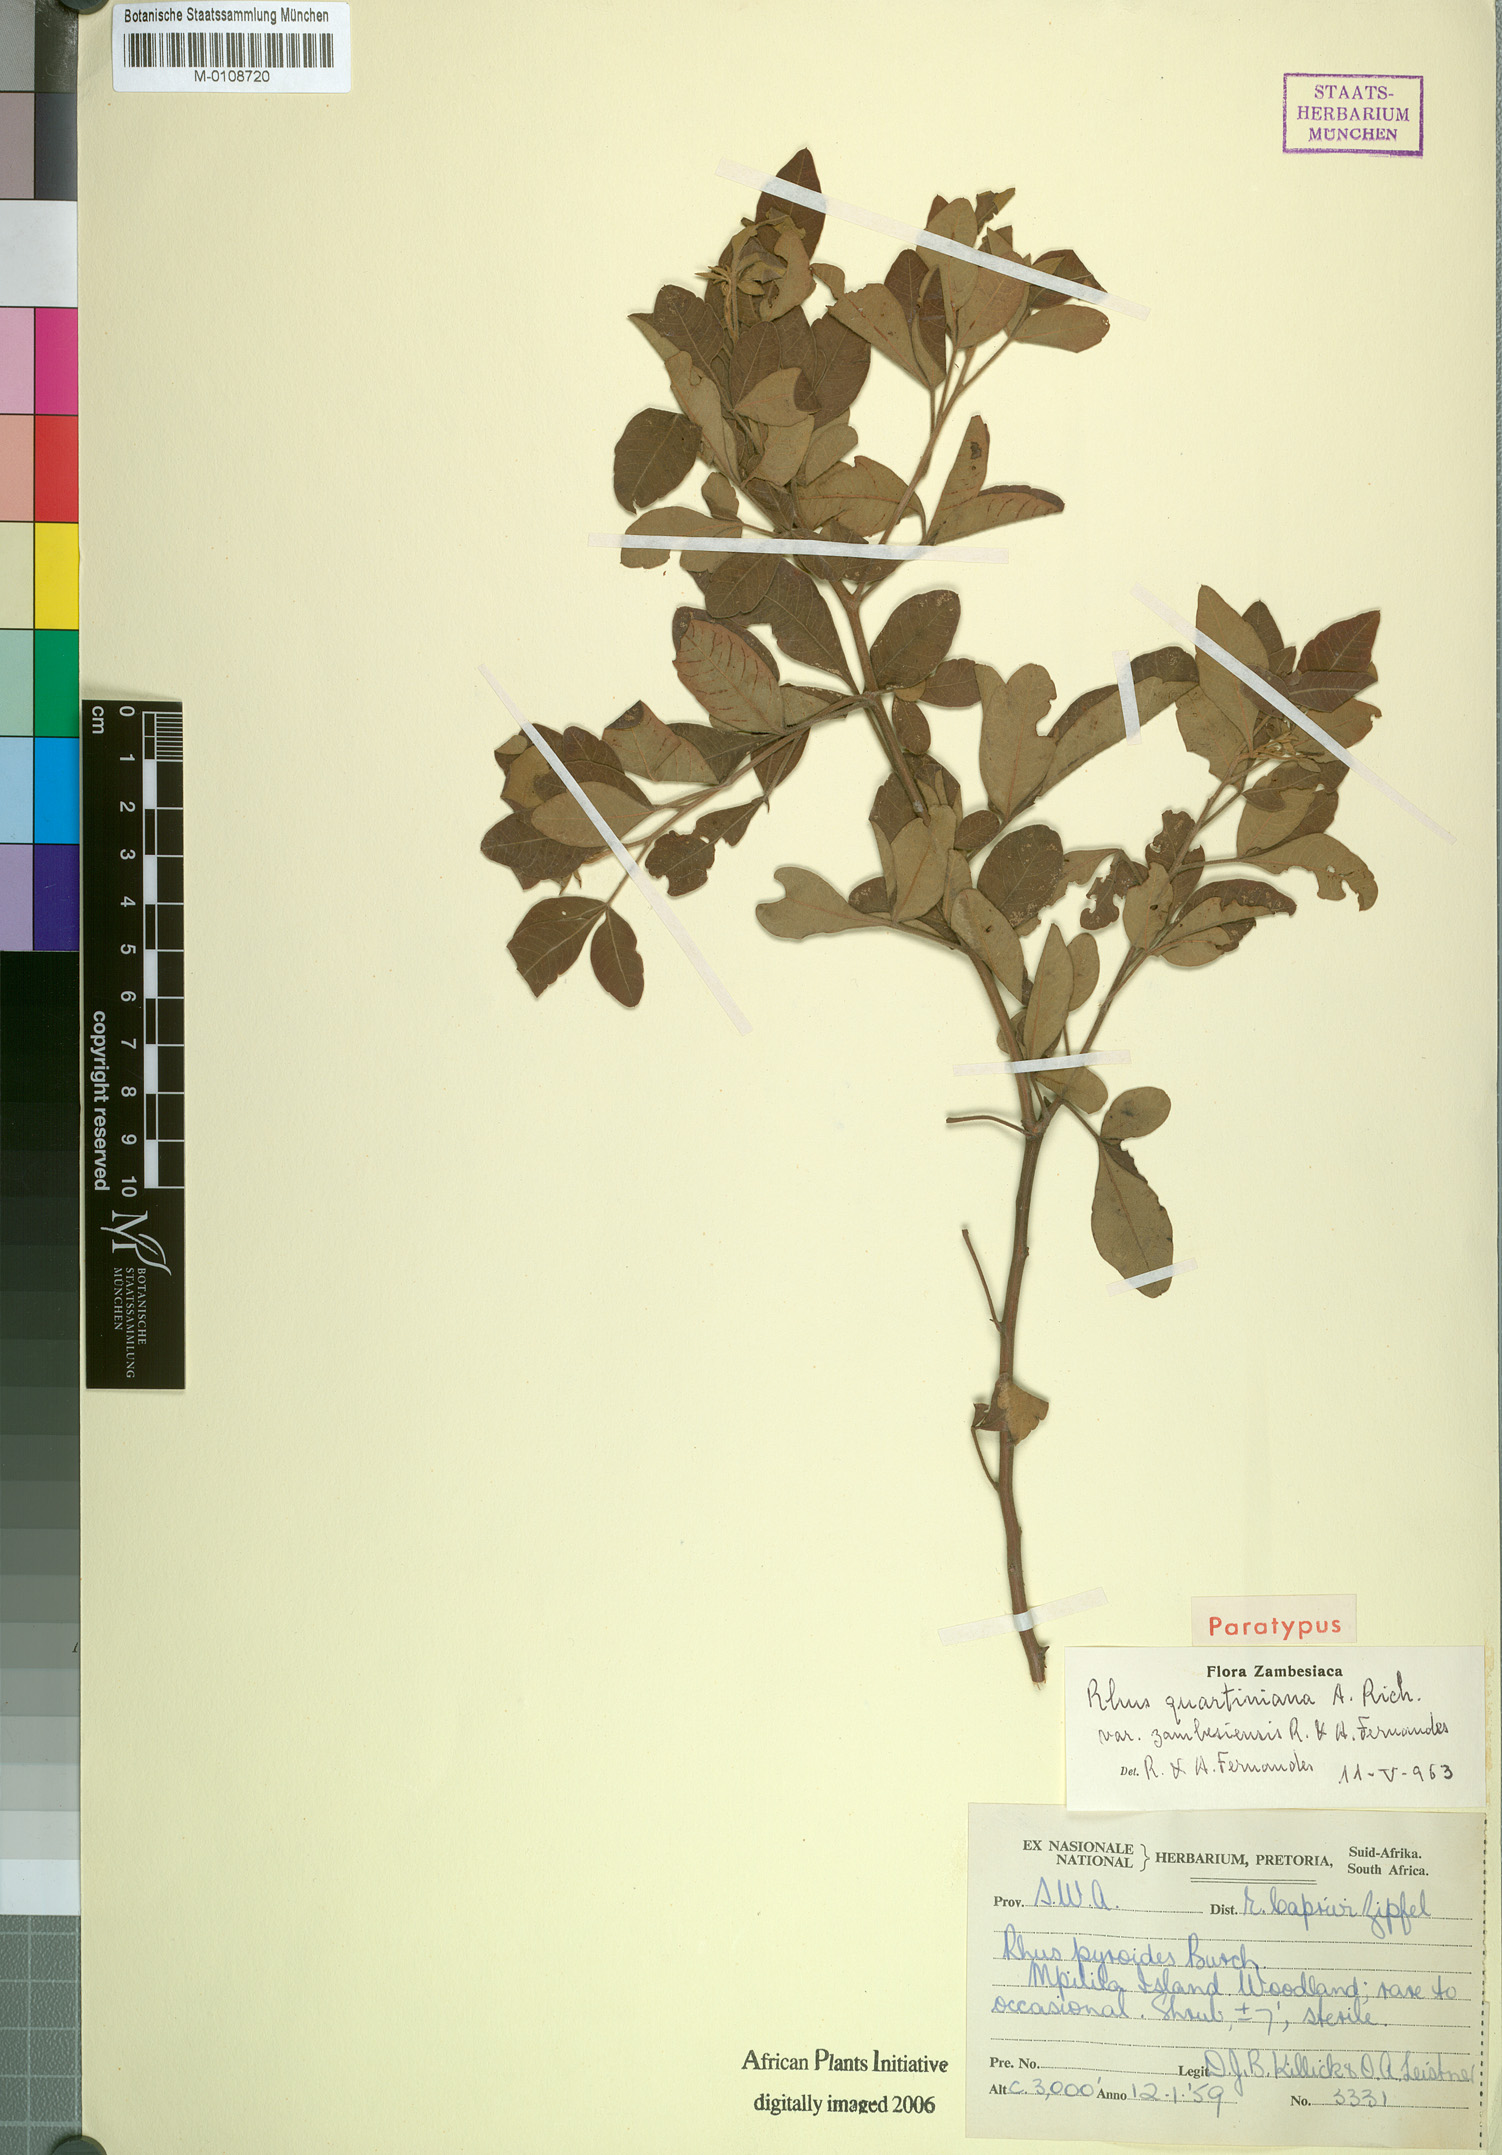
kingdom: Plantae
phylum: Tracheophyta
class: Magnoliopsida
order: Sapindales
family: Anacardiaceae
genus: Searsia
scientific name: Searsia quartiniana
